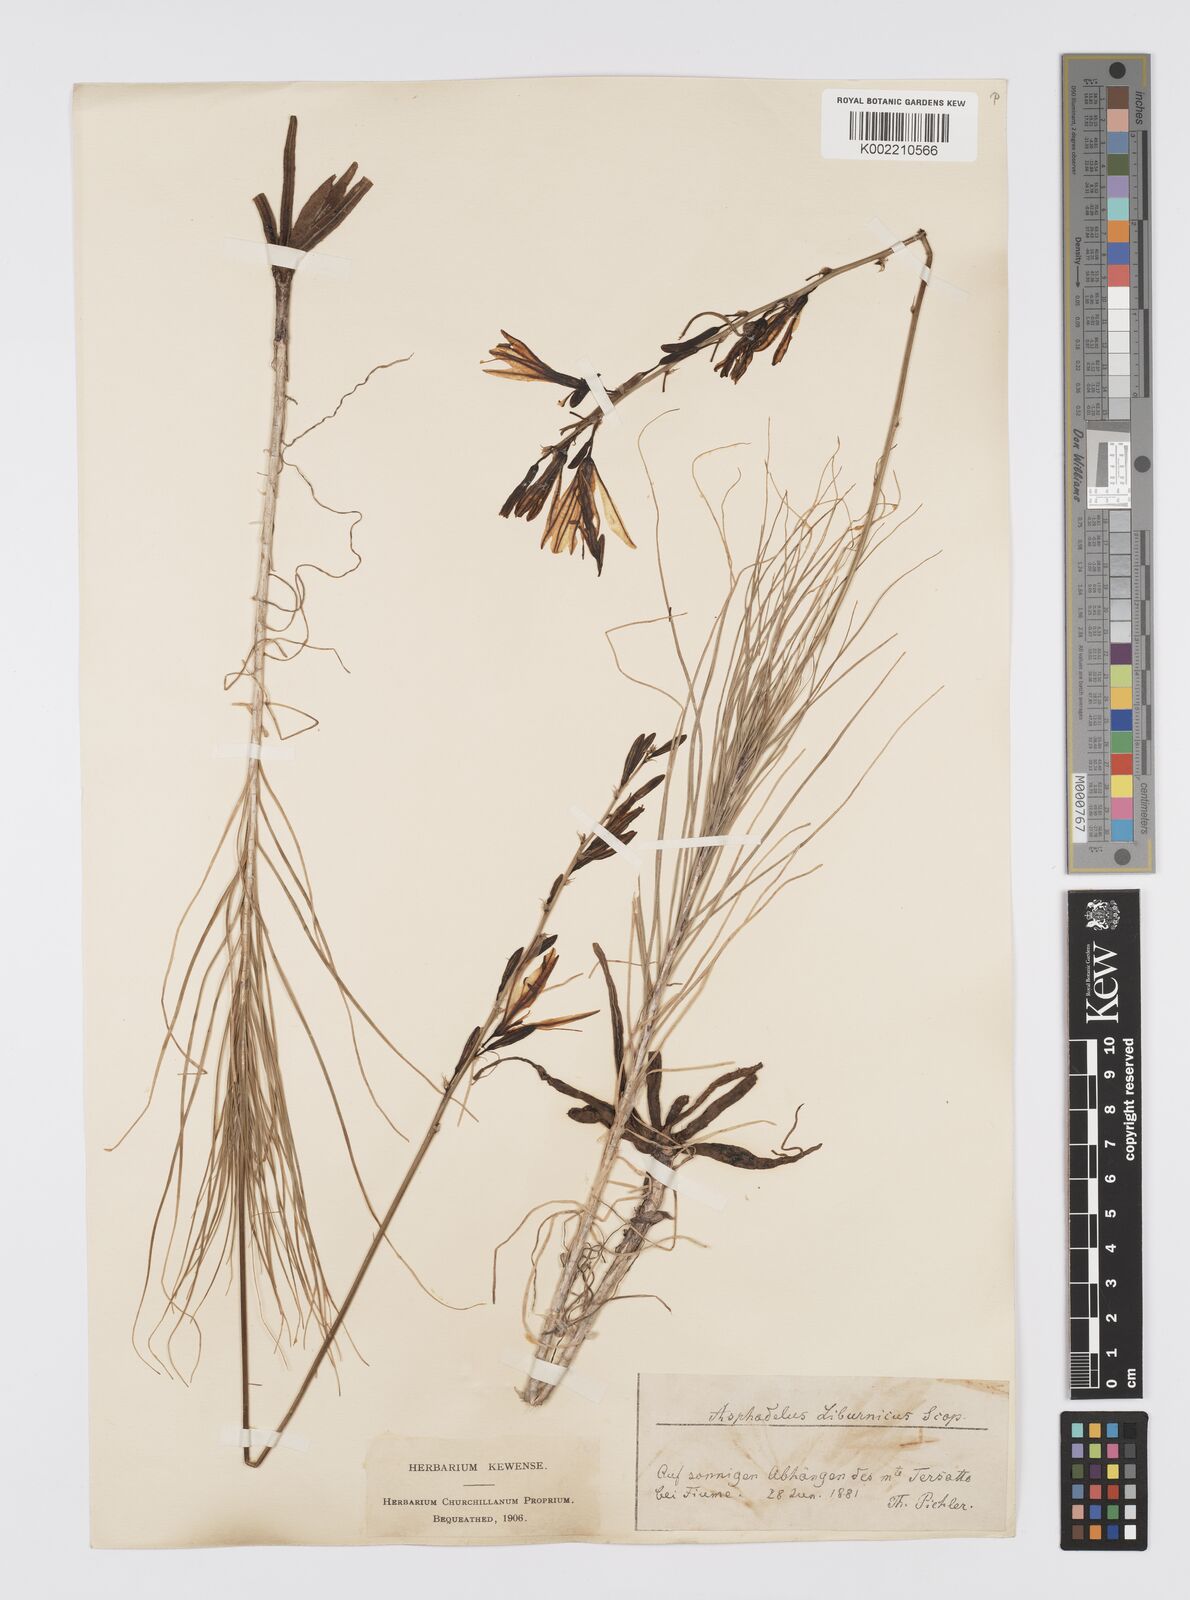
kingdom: Plantae
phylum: Tracheophyta
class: Liliopsida
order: Asparagales
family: Asphodelaceae
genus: Asphodeline
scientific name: Asphodeline liburnica
